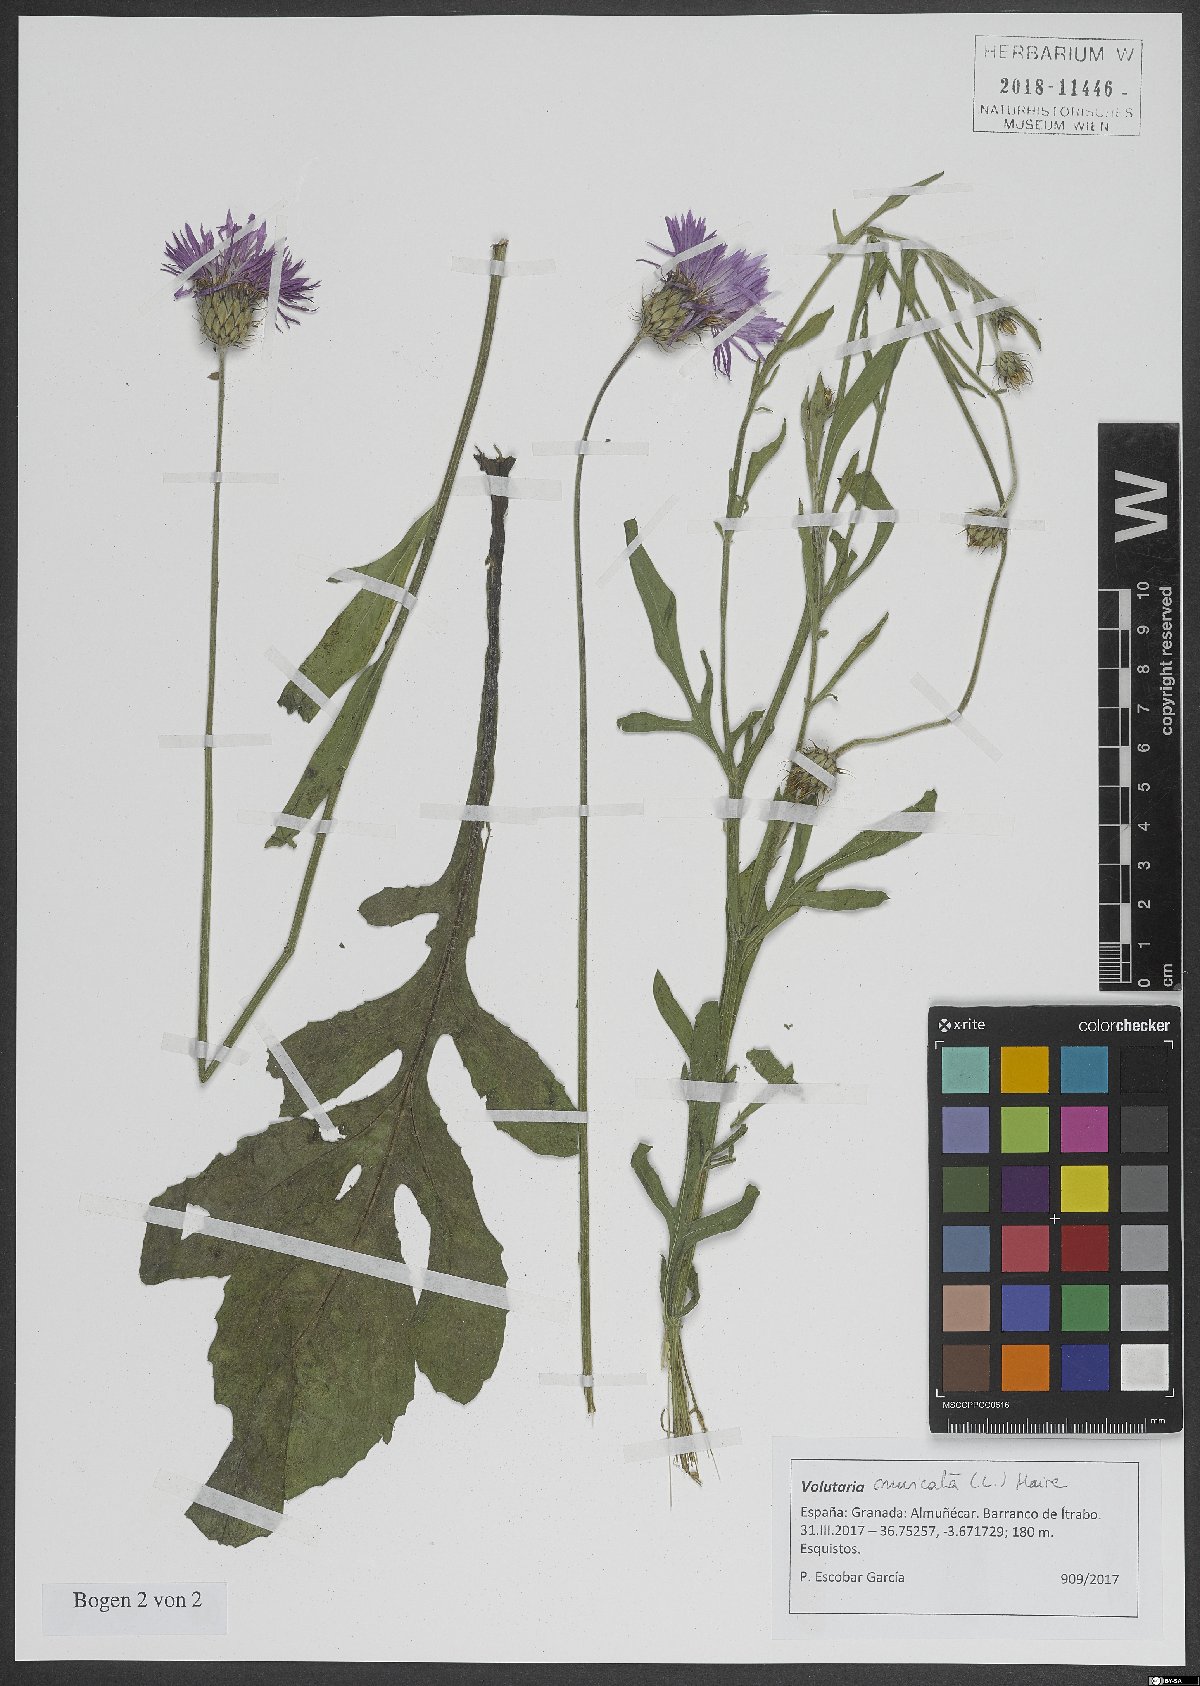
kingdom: Plantae
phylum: Tracheophyta
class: Magnoliopsida
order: Asterales
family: Asteraceae
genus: Volutaria
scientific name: Volutaria muricata
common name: Morocco knapweed
